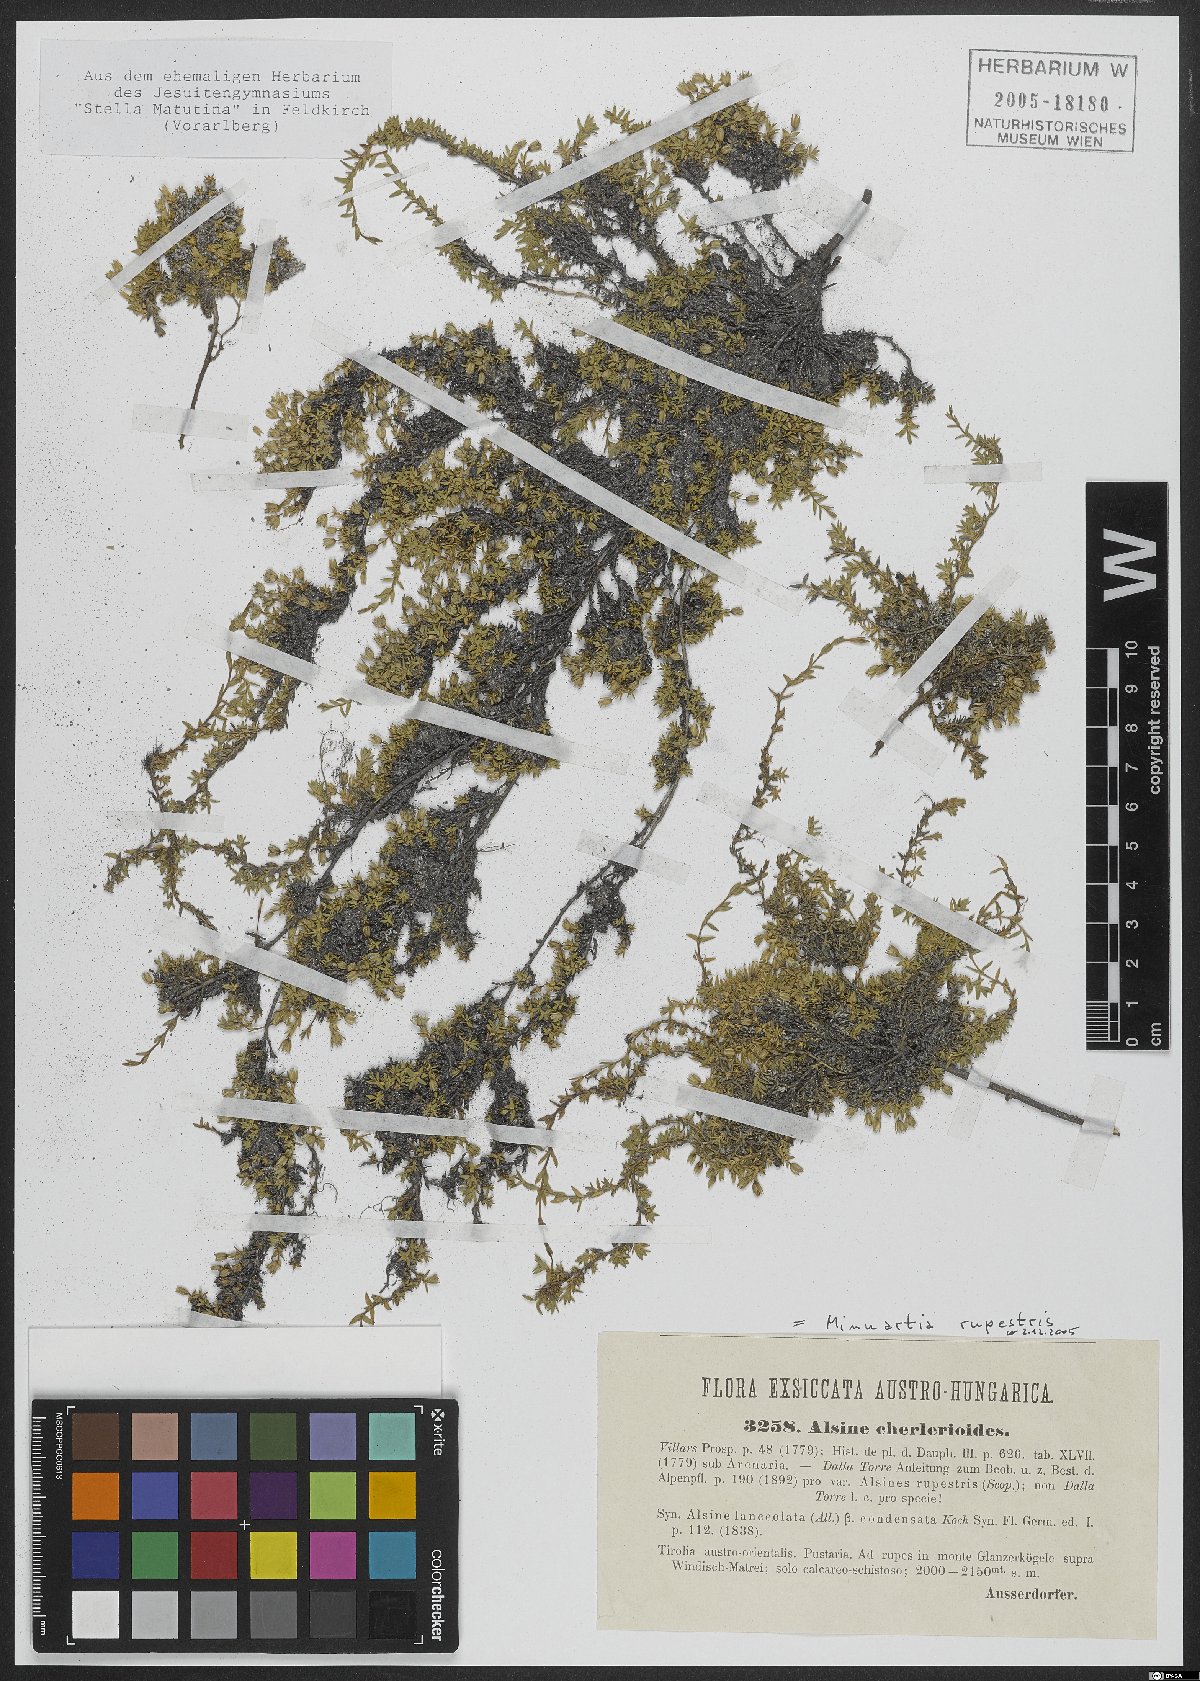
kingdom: Plantae
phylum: Tracheophyta
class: Magnoliopsida
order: Caryophyllales
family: Caryophyllaceae
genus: Facchinia
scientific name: Facchinia rupestris
